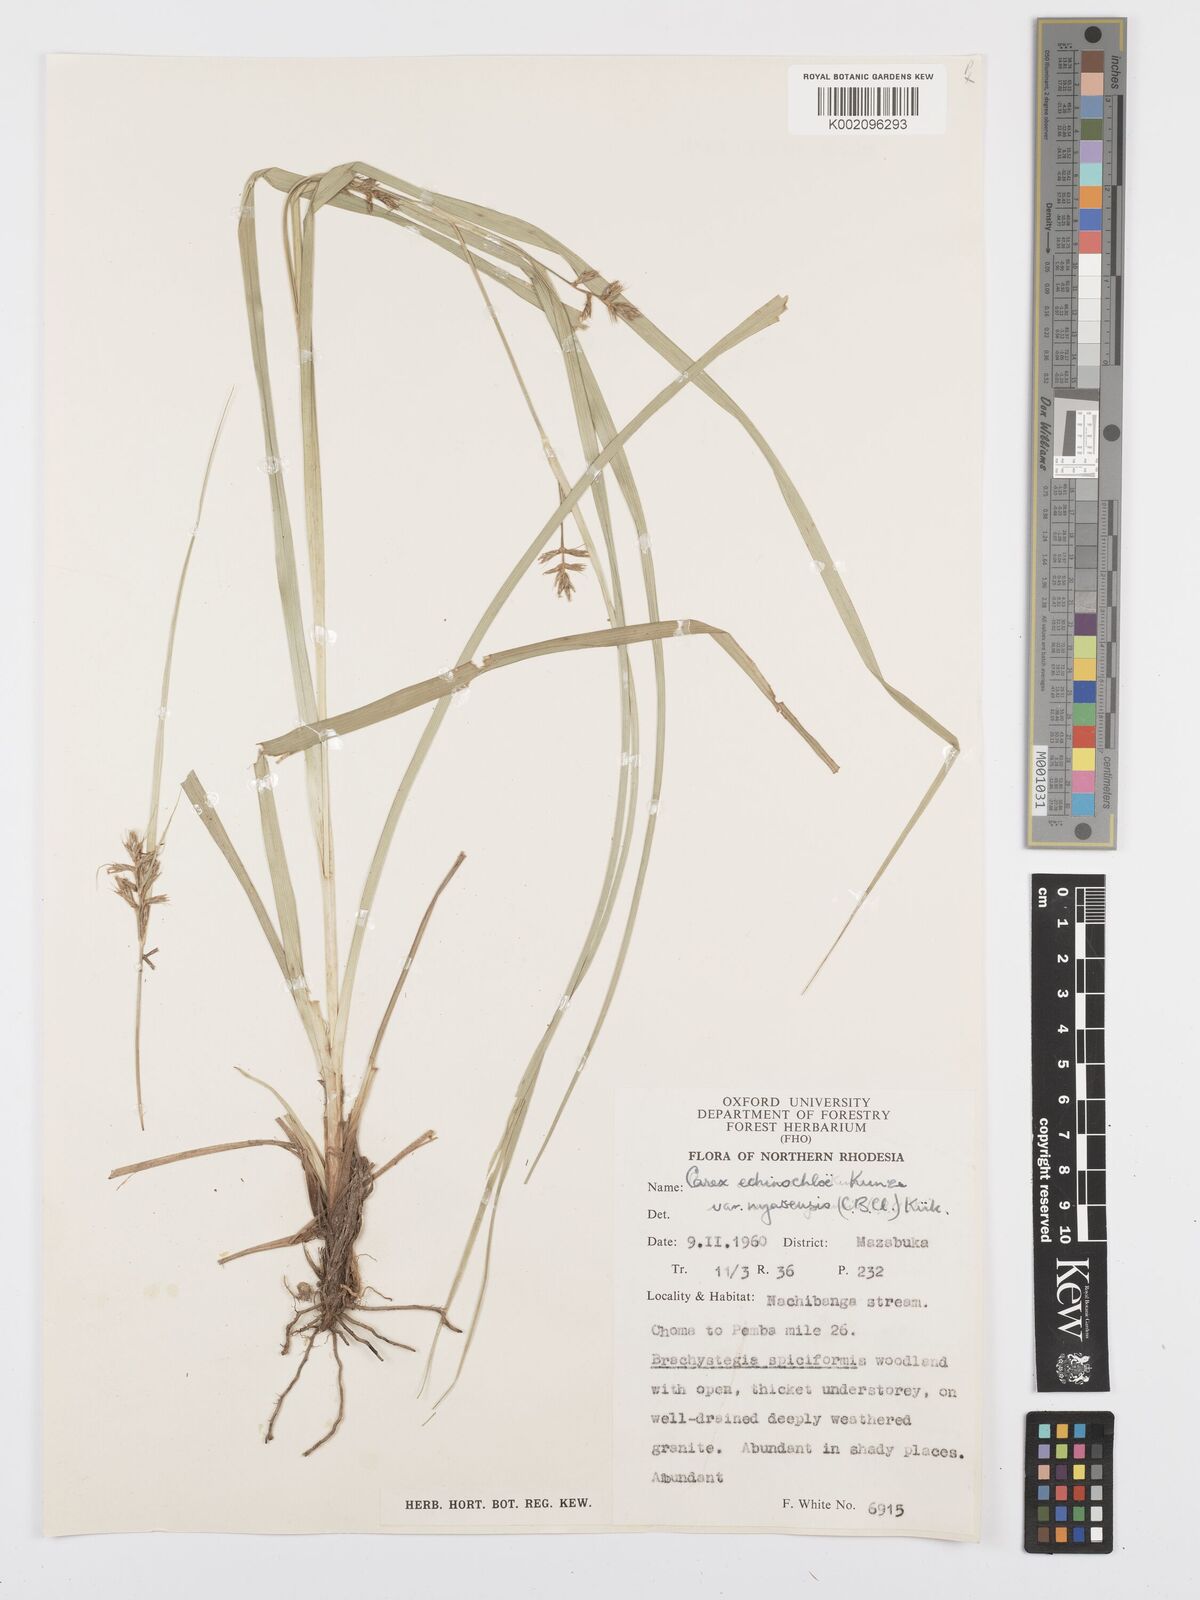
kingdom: Plantae
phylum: Tracheophyta
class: Liliopsida
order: Poales
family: Cyperaceae
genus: Carex
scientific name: Carex spicatopaniculata
